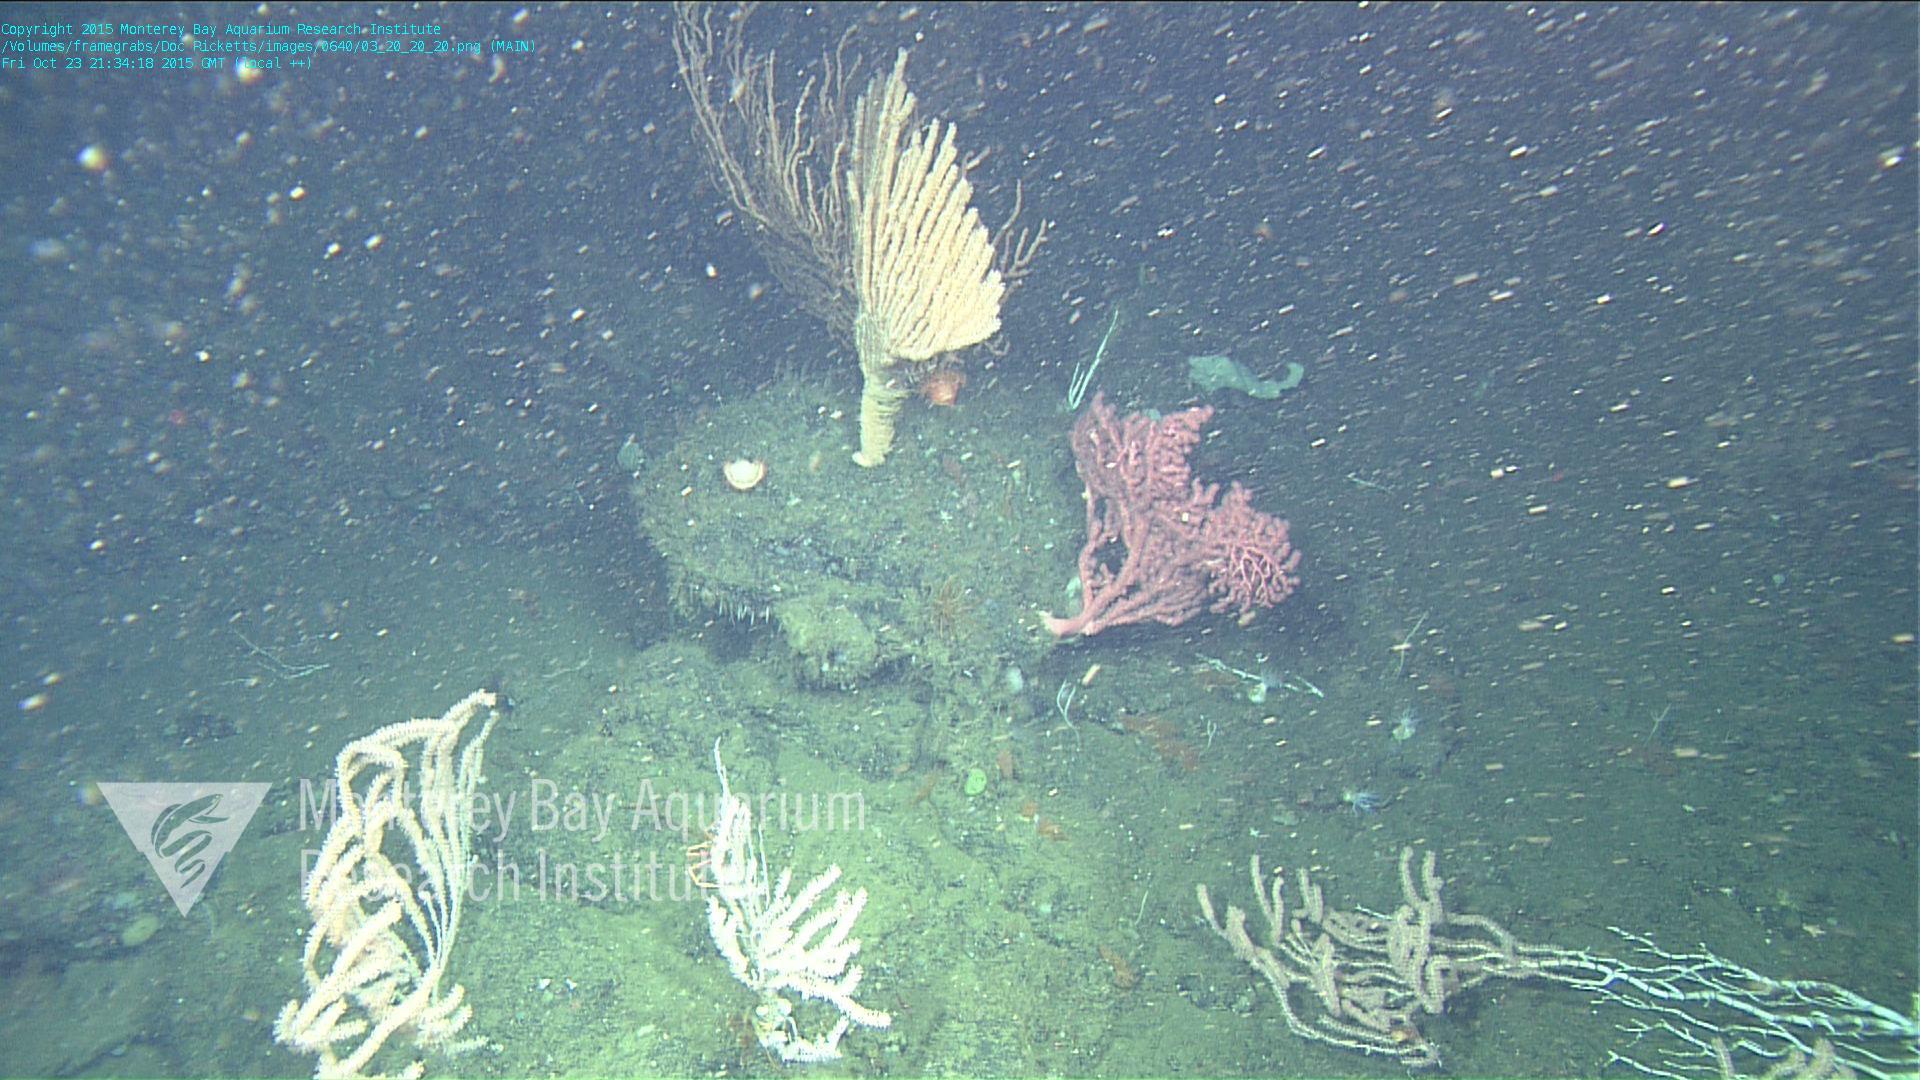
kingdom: Animalia
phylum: Cnidaria
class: Anthozoa
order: Scleralcyonacea
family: Coralliidae
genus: Paragorgia
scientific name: Paragorgia arborea
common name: Bubble gum coral
